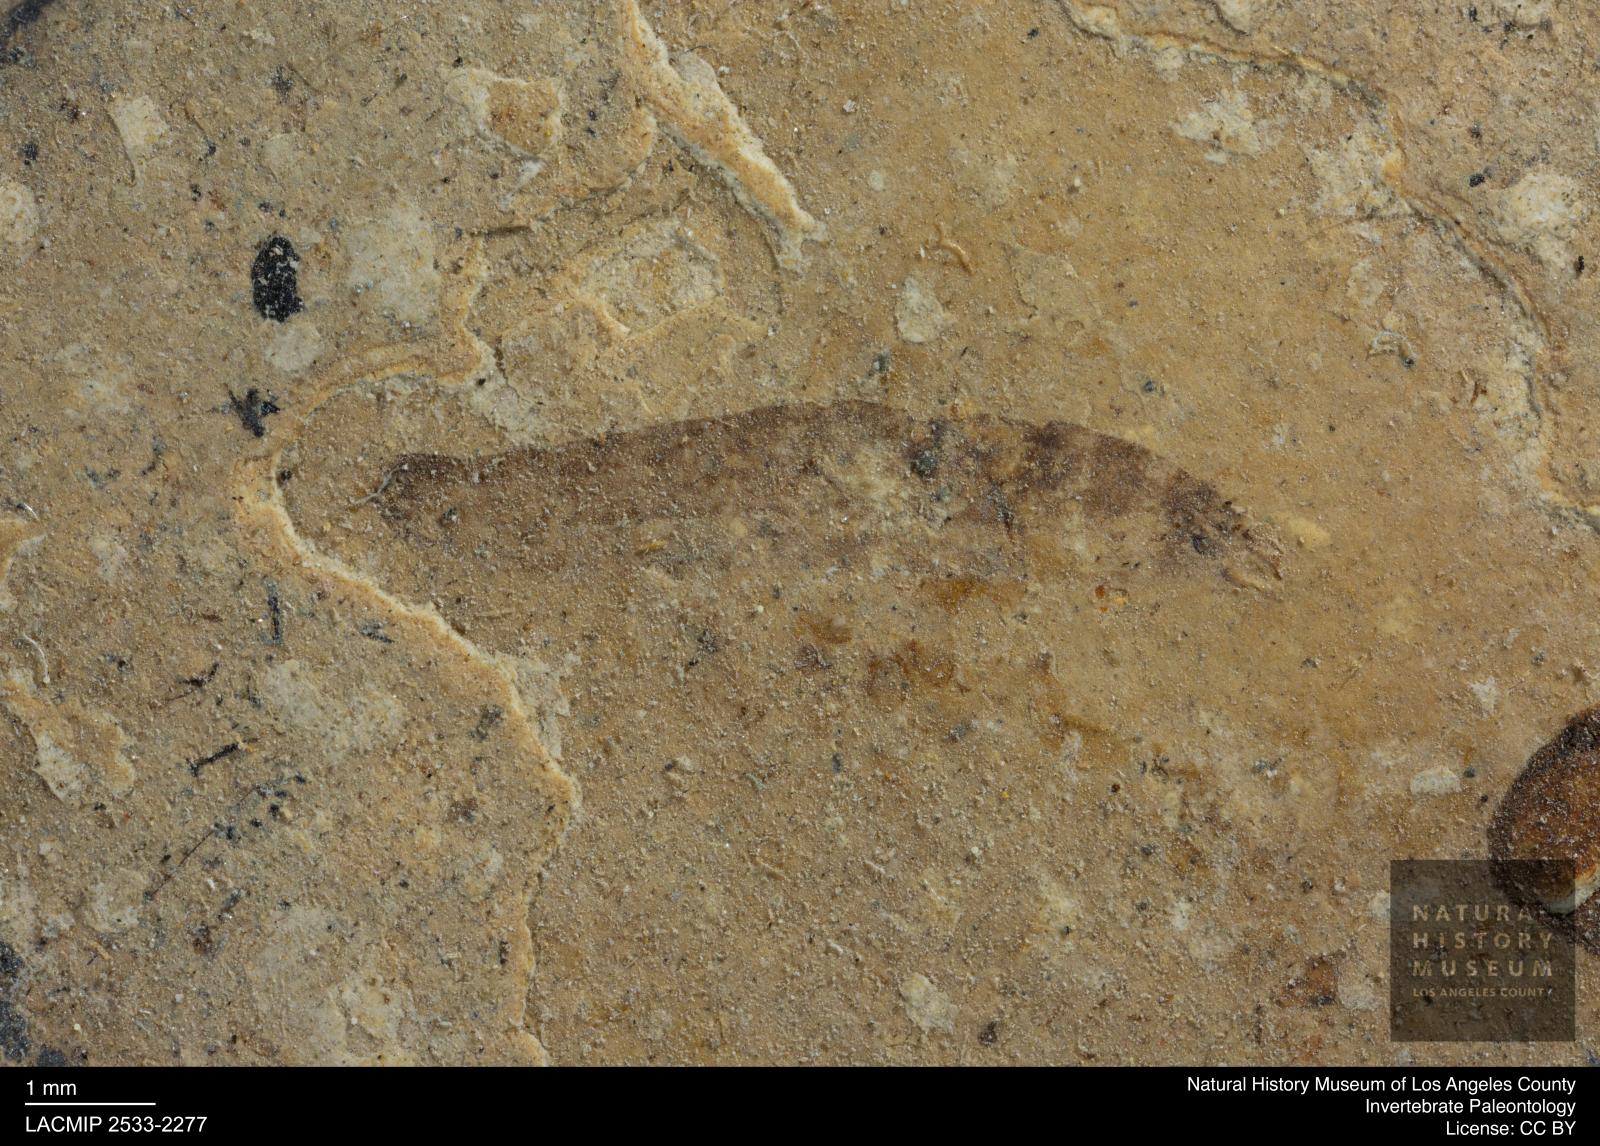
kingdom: Animalia
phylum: Arthropoda
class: Insecta
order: Diptera
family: Stratiomyidae
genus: Odontomyia
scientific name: Odontomyia
